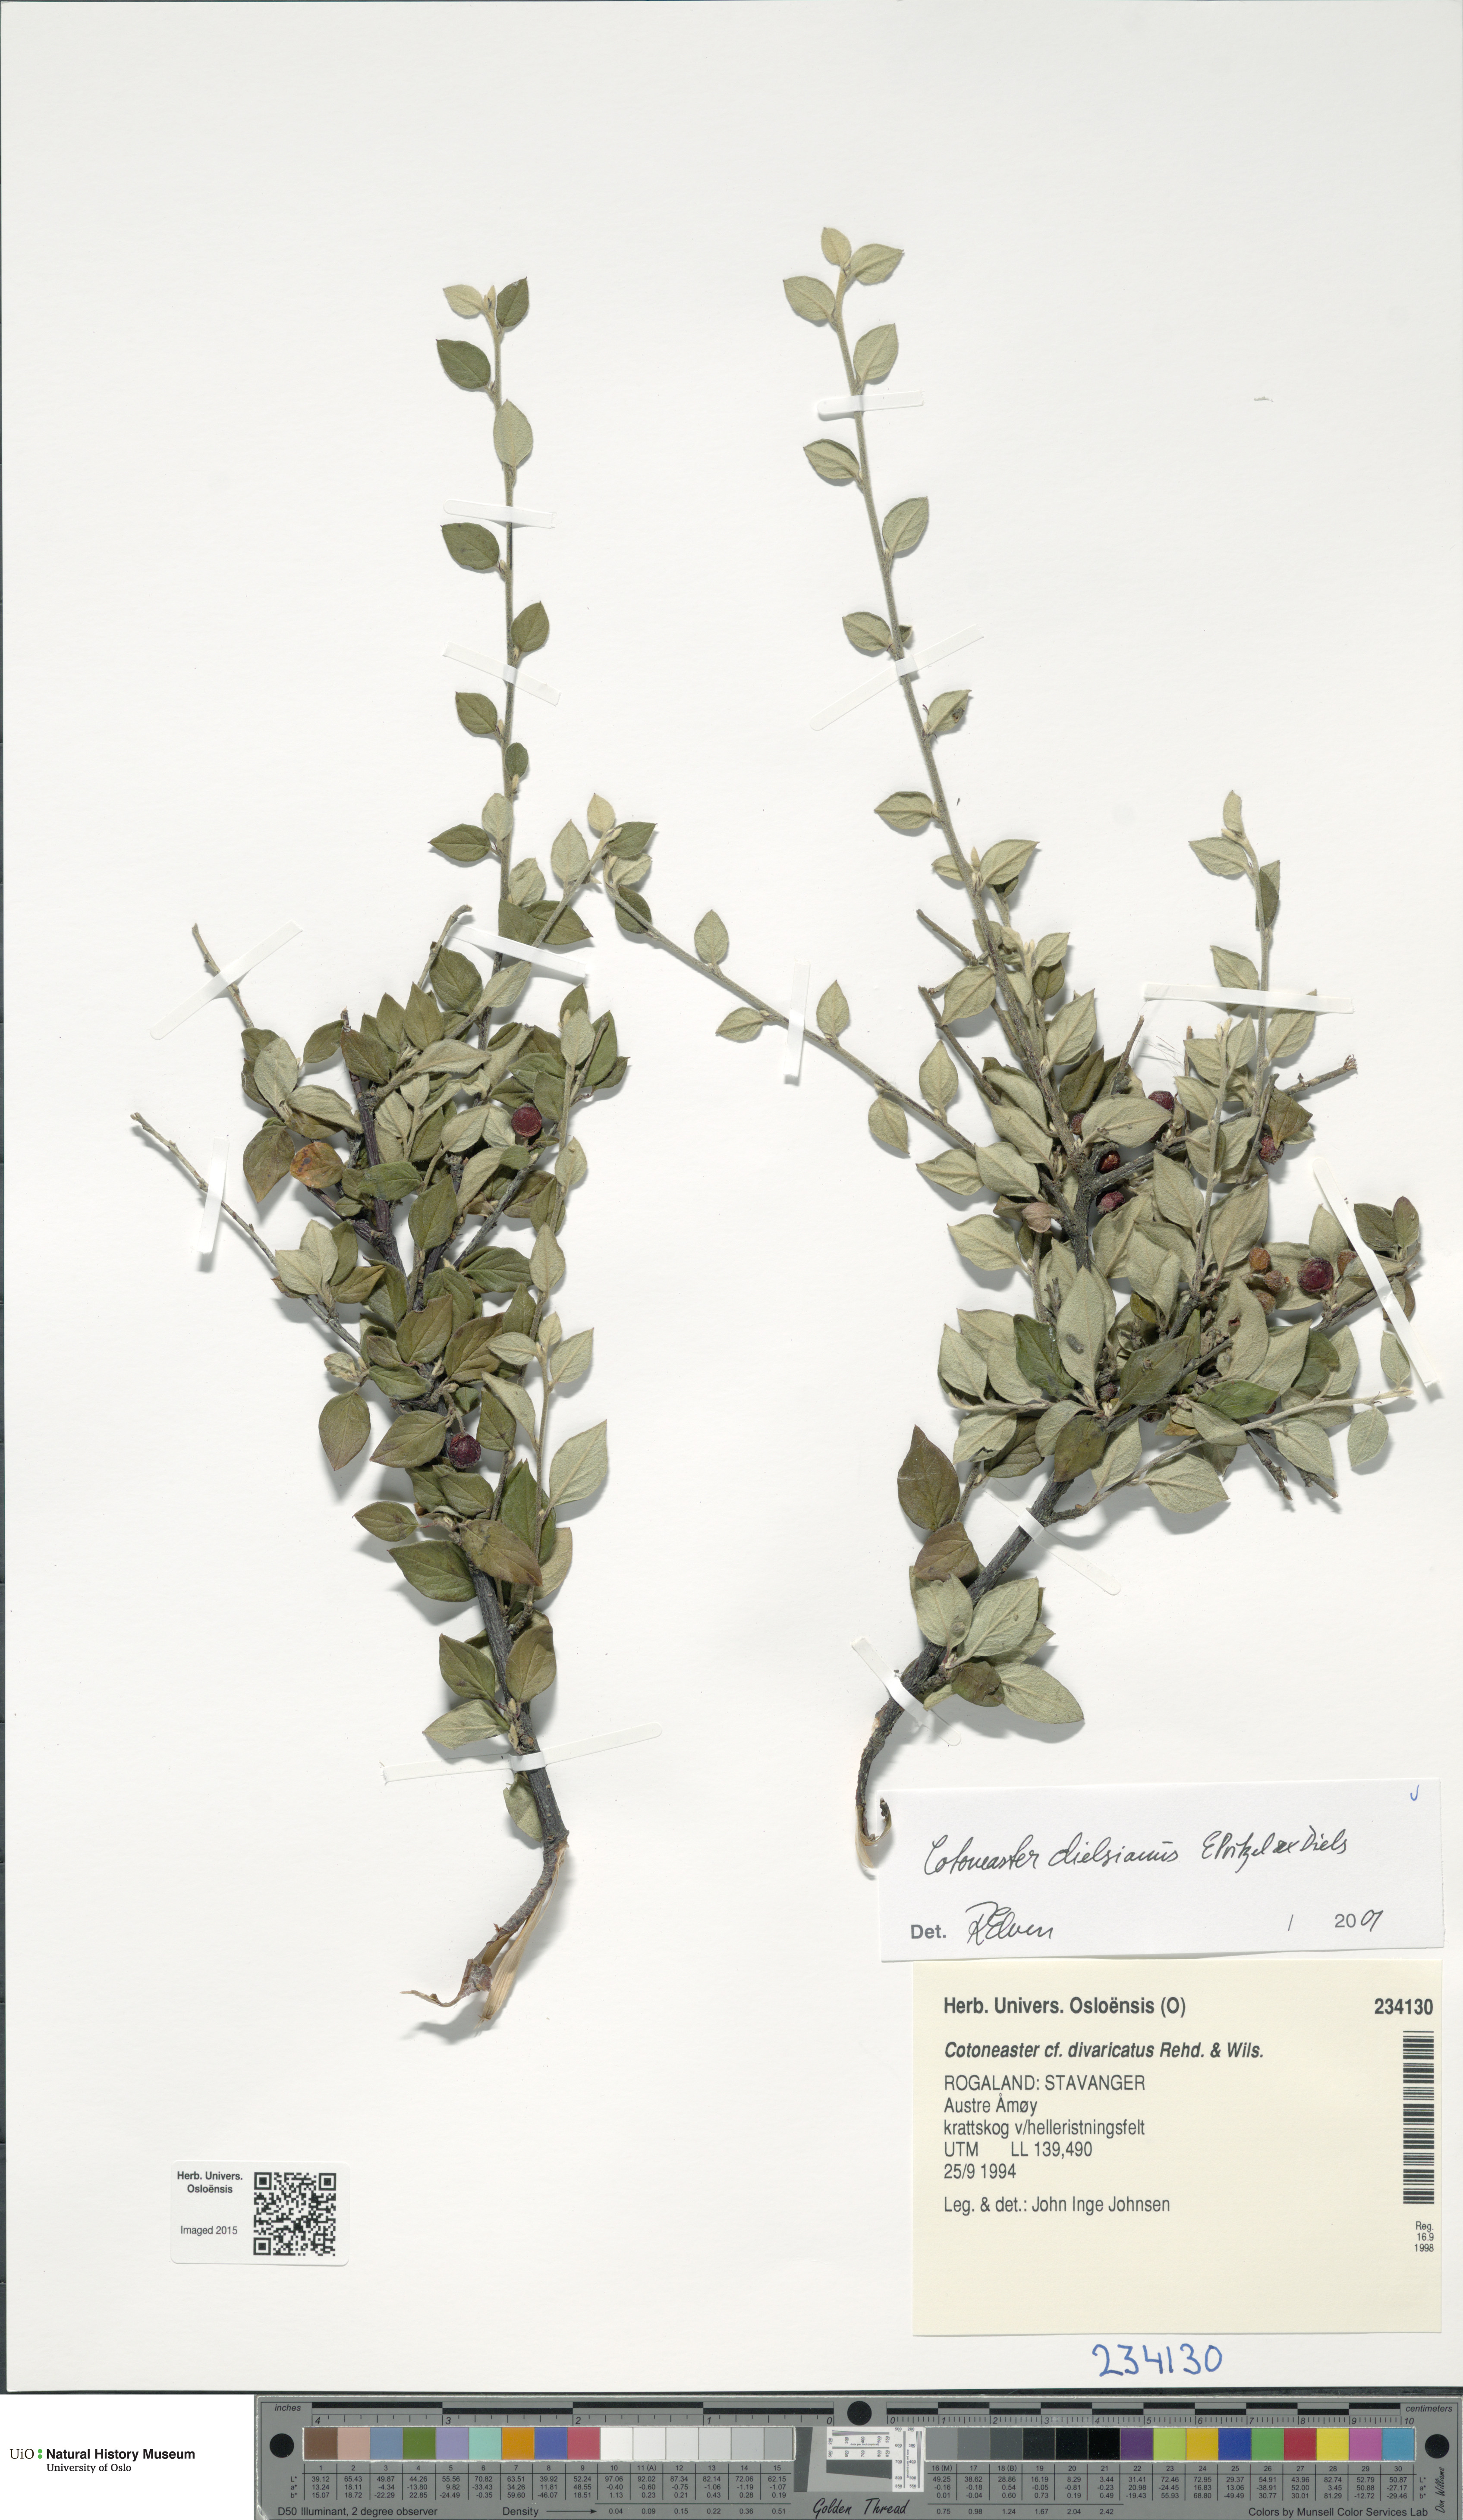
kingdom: Plantae
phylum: Tracheophyta
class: Magnoliopsida
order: Rosales
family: Rosaceae
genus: Cotoneaster
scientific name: Cotoneaster dielsianus
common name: Diels's cotoneaster
